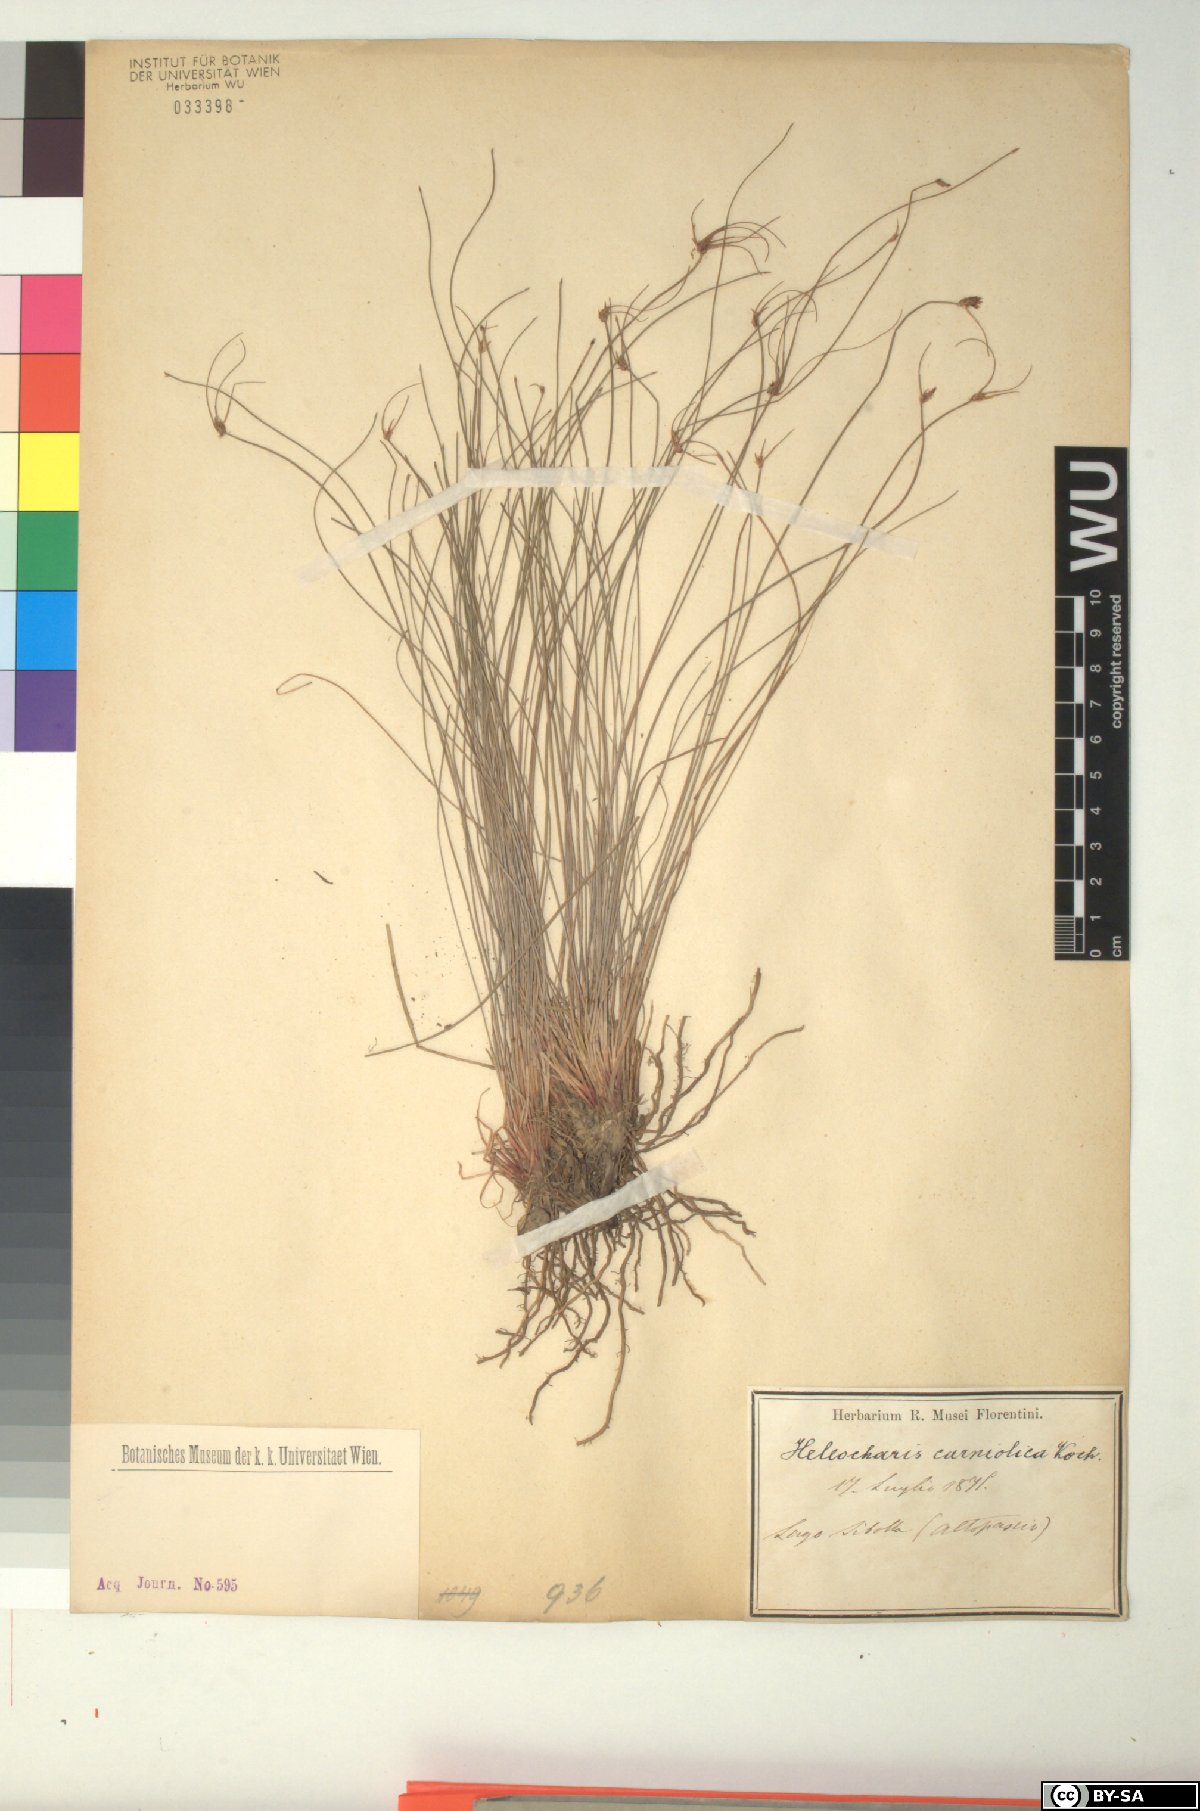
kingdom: Plantae
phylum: Tracheophyta
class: Liliopsida
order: Poales
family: Cyperaceae
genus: Eleocharis
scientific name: Eleocharis carniolica
